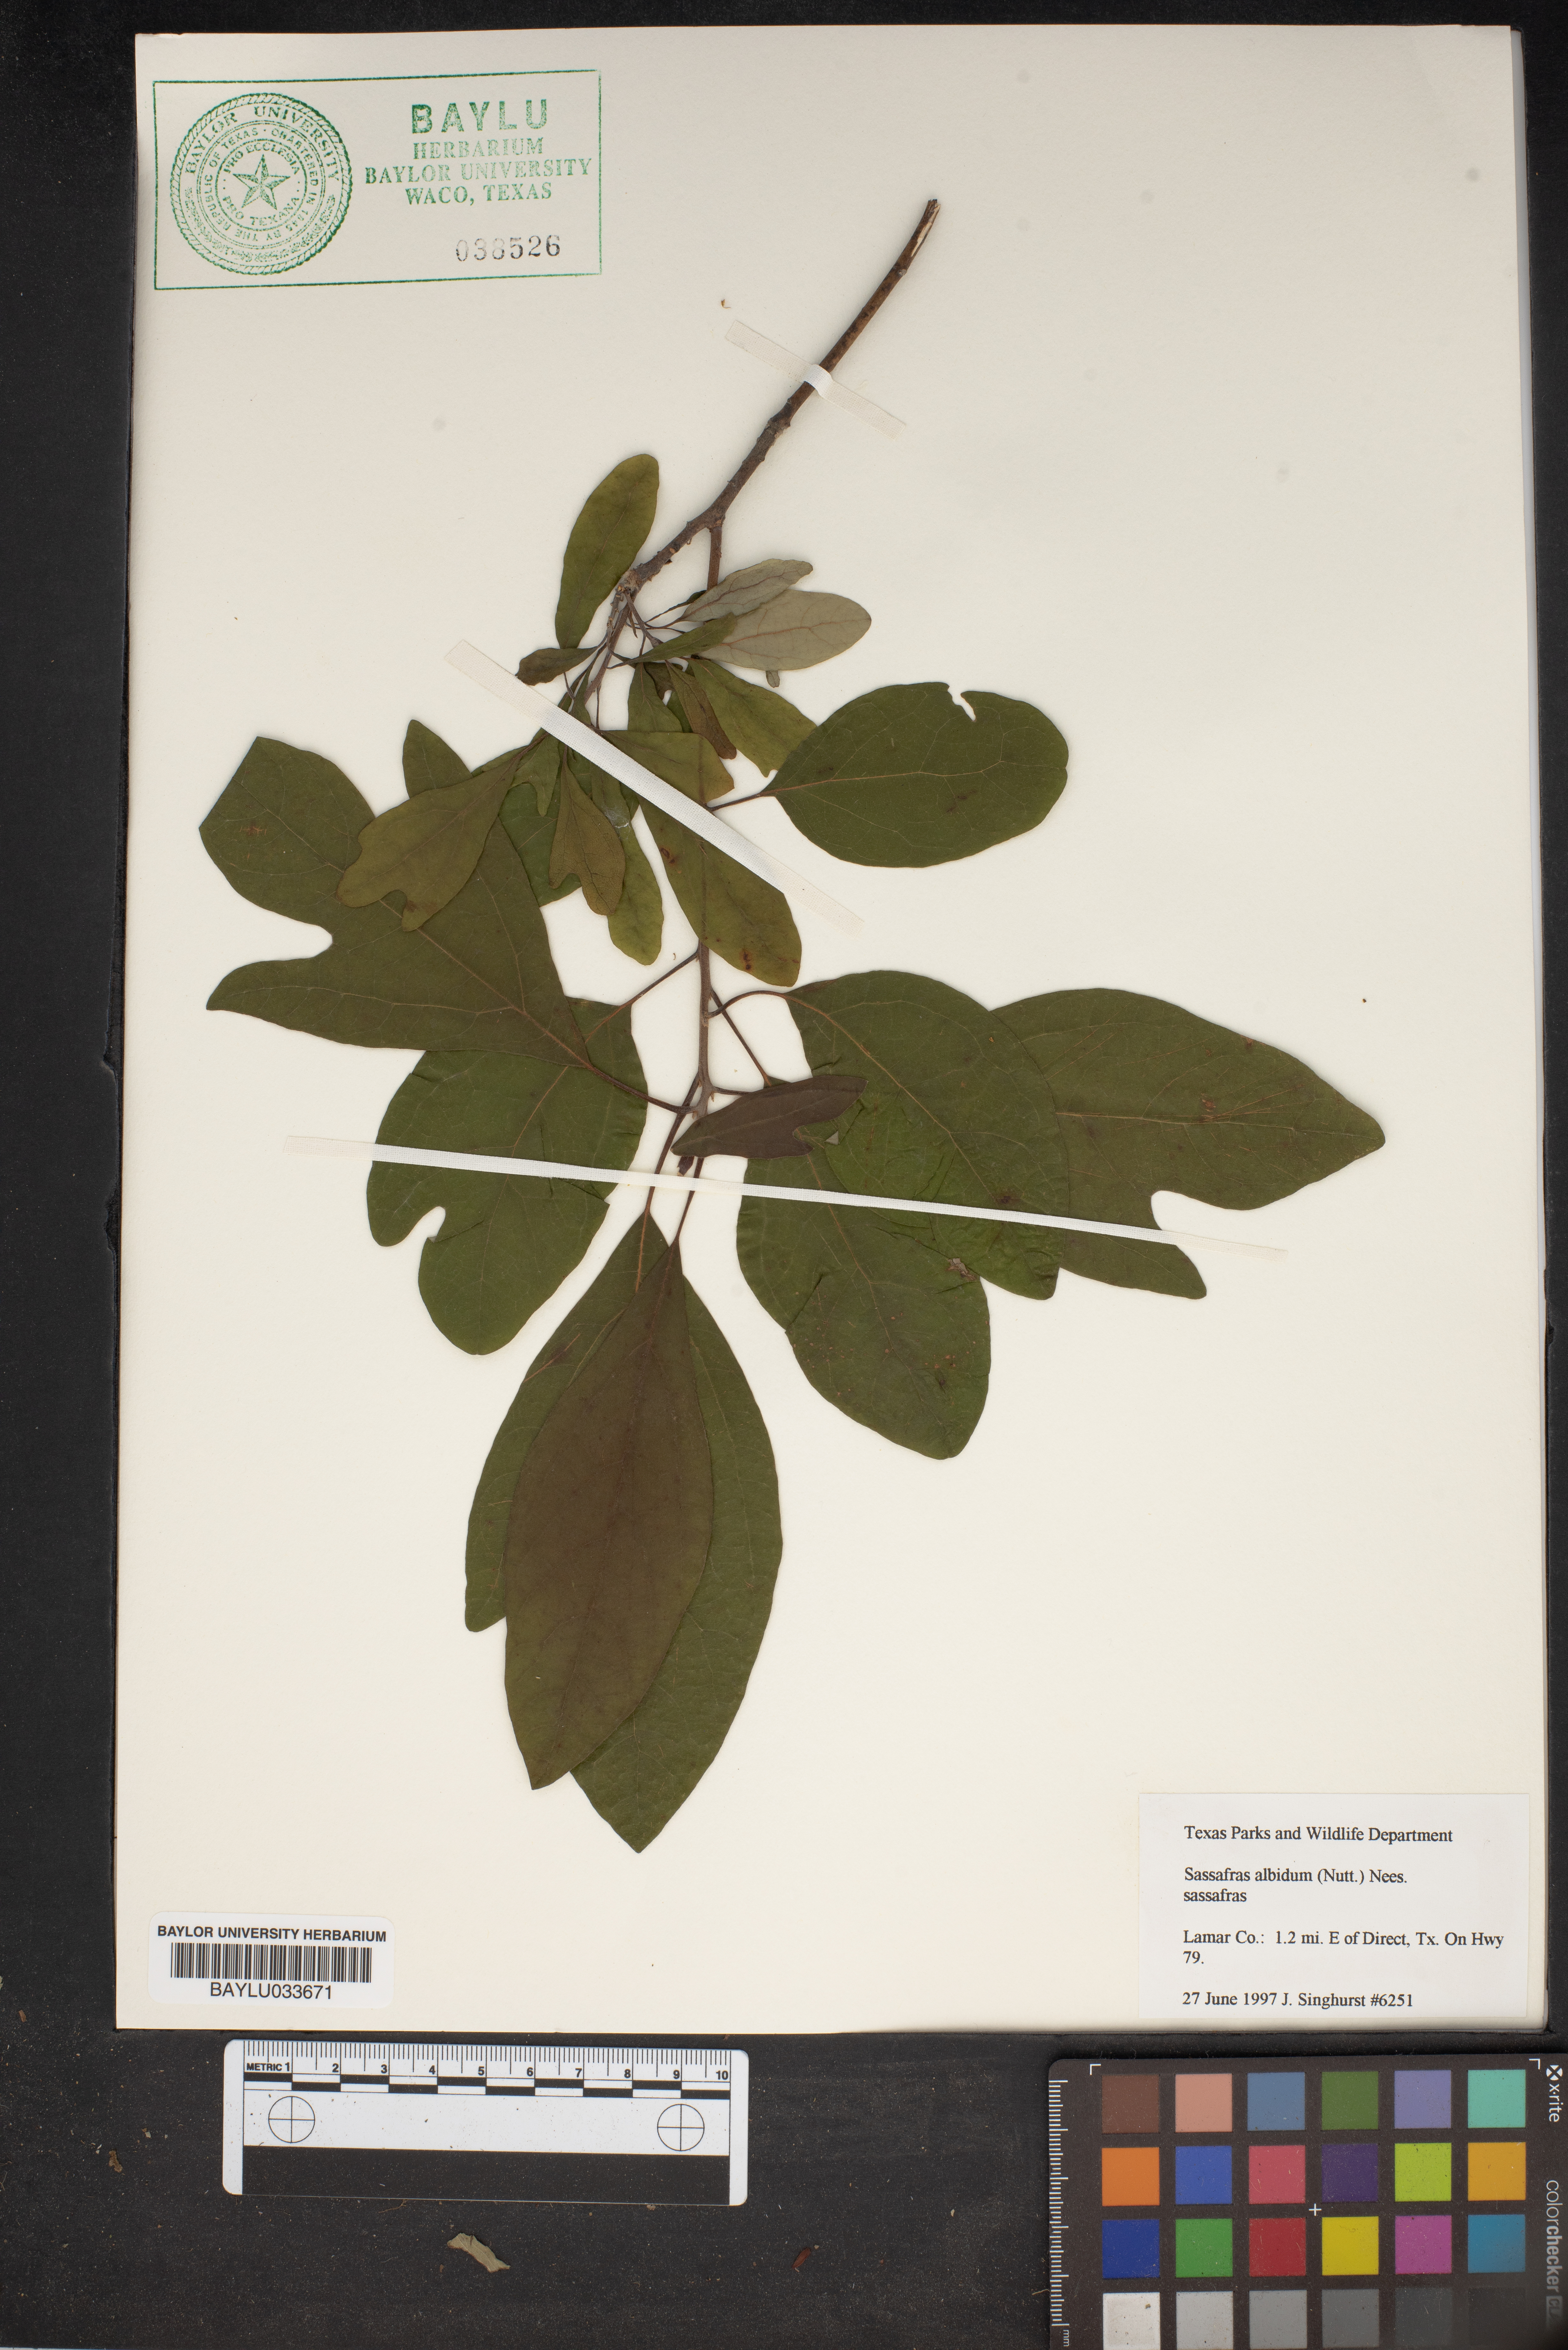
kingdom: Plantae
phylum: Tracheophyta
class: Magnoliopsida
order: Laurales
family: Lauraceae
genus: Sassafras
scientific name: Sassafras albidum
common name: Sassafras
